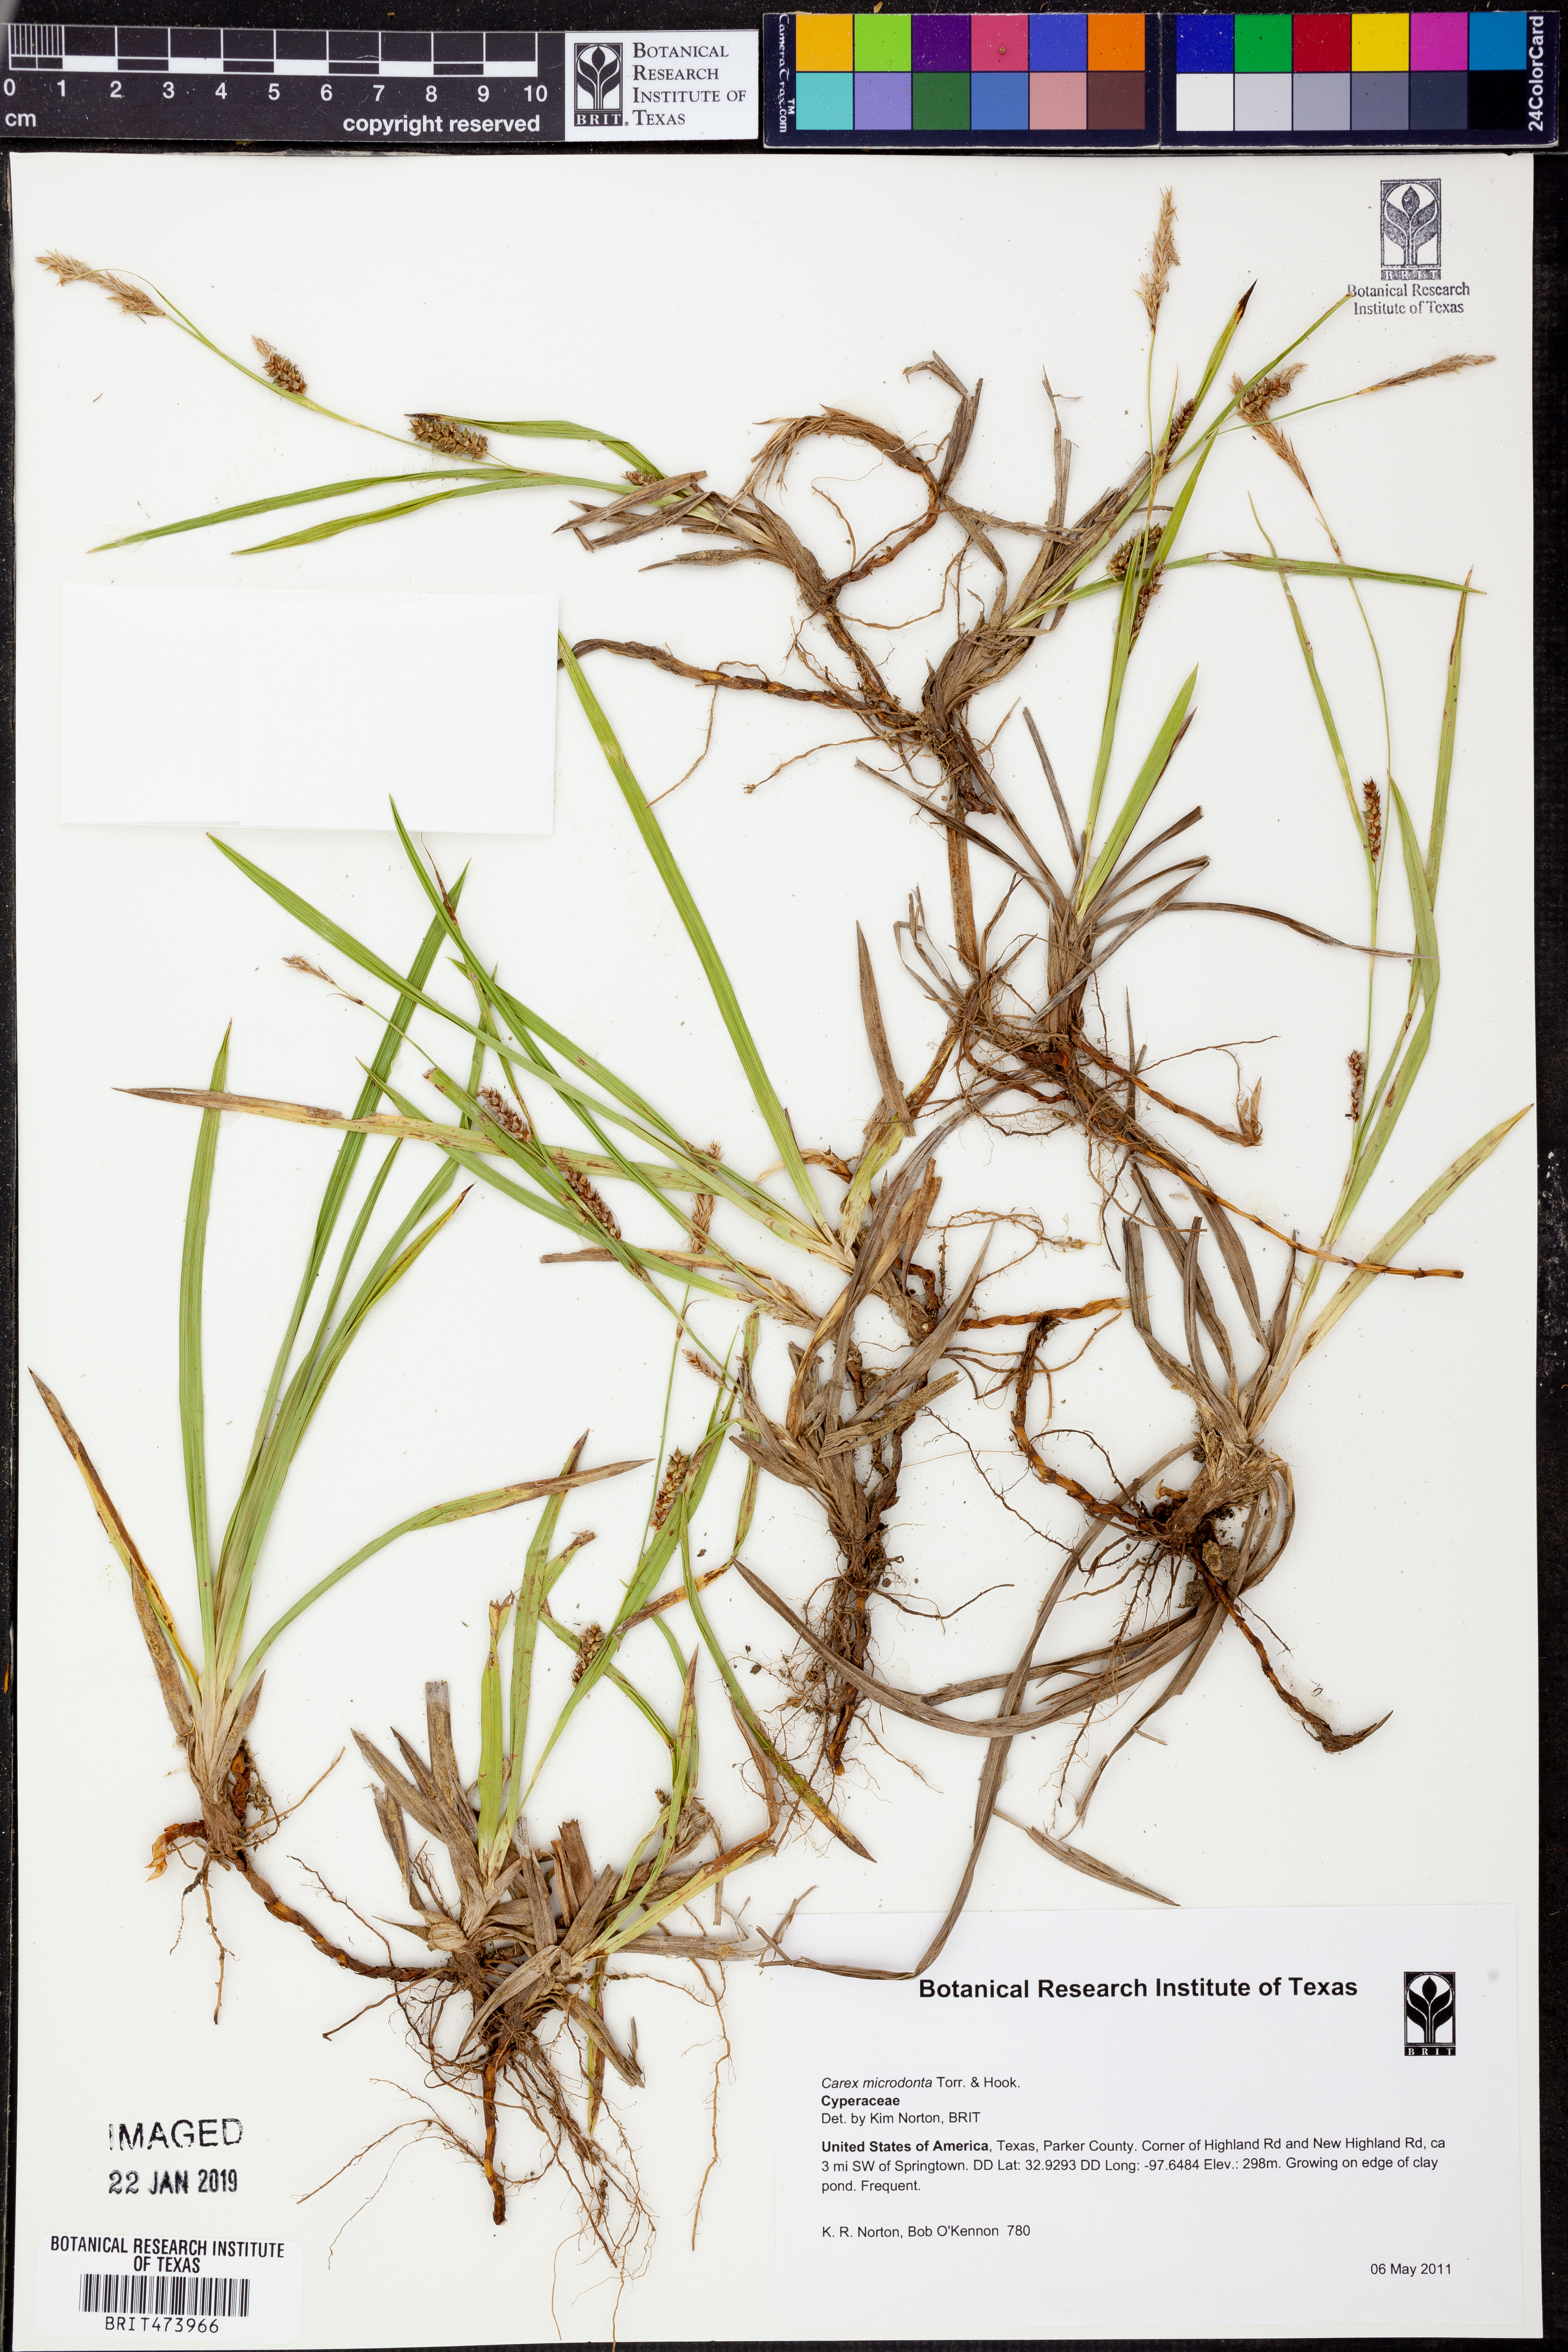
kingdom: Plantae
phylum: Tracheophyta
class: Liliopsida
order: Poales
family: Cyperaceae
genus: Carex
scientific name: Carex microdonta
